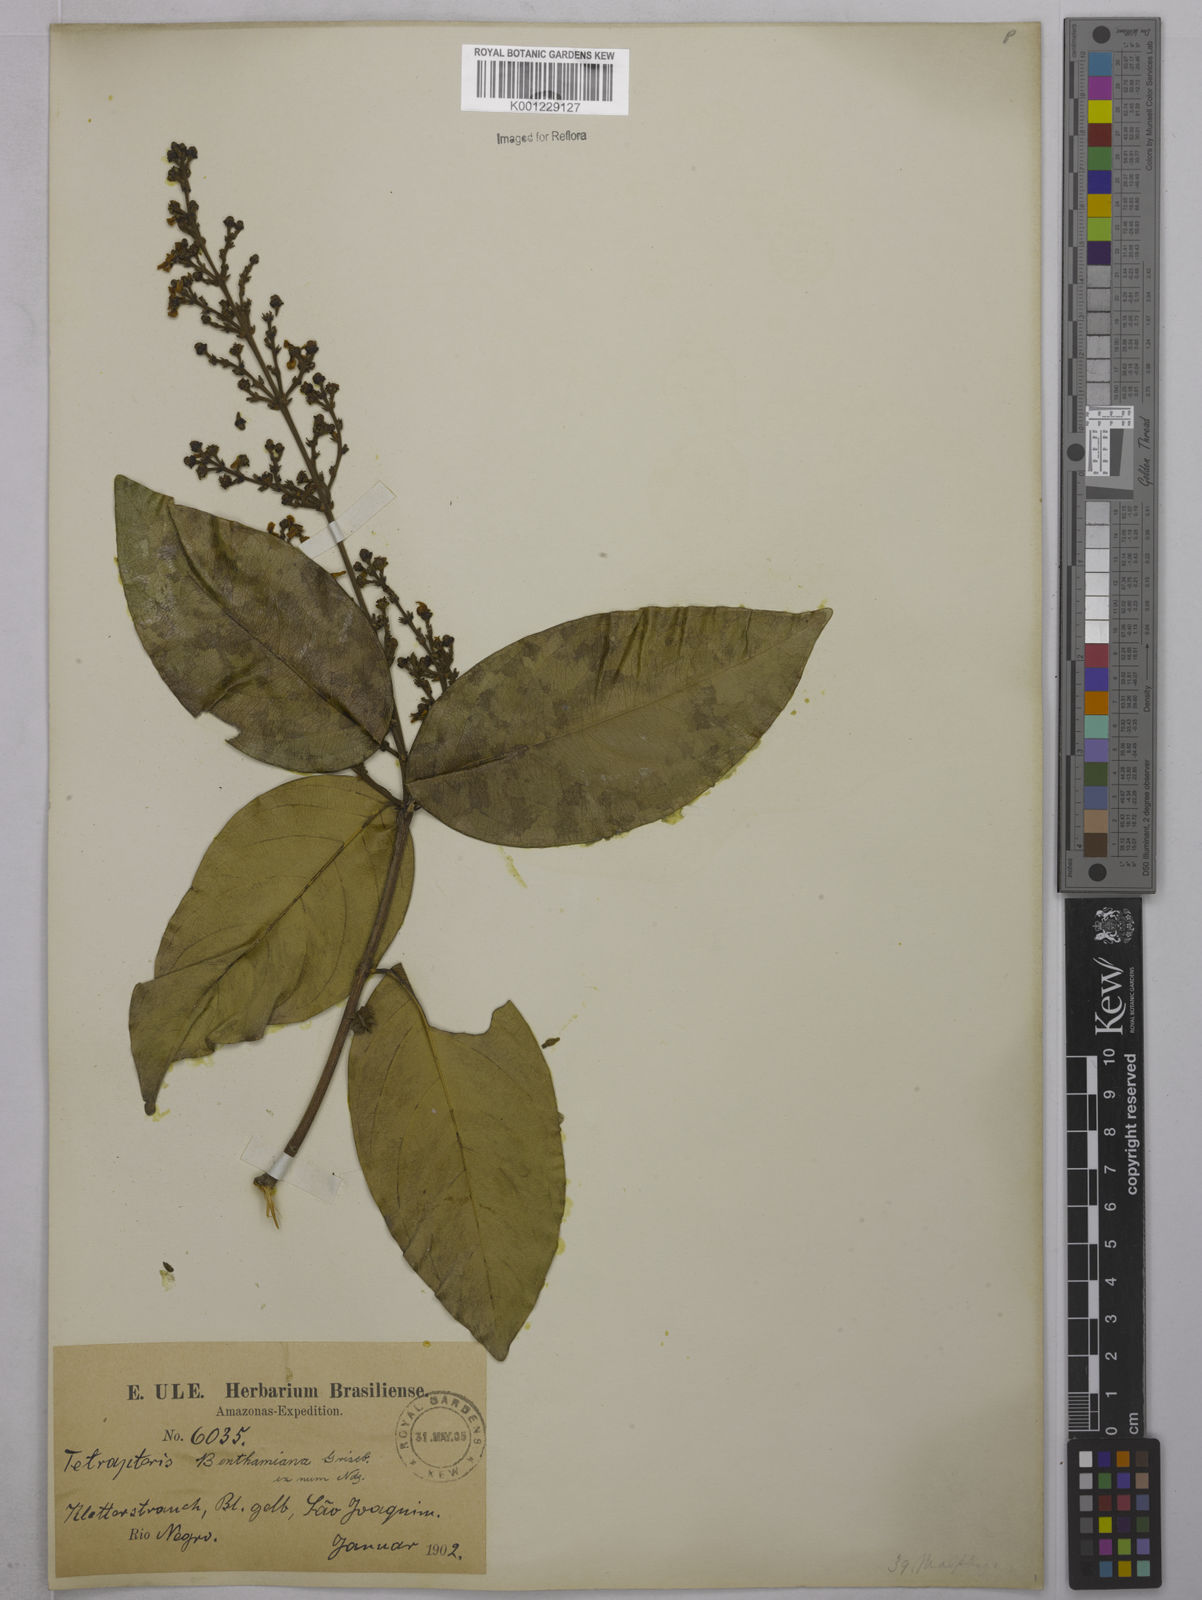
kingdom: Plantae
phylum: Tracheophyta
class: Magnoliopsida
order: Malpighiales
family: Malpighiaceae
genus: Niedenzuella
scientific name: Niedenzuella stannea
